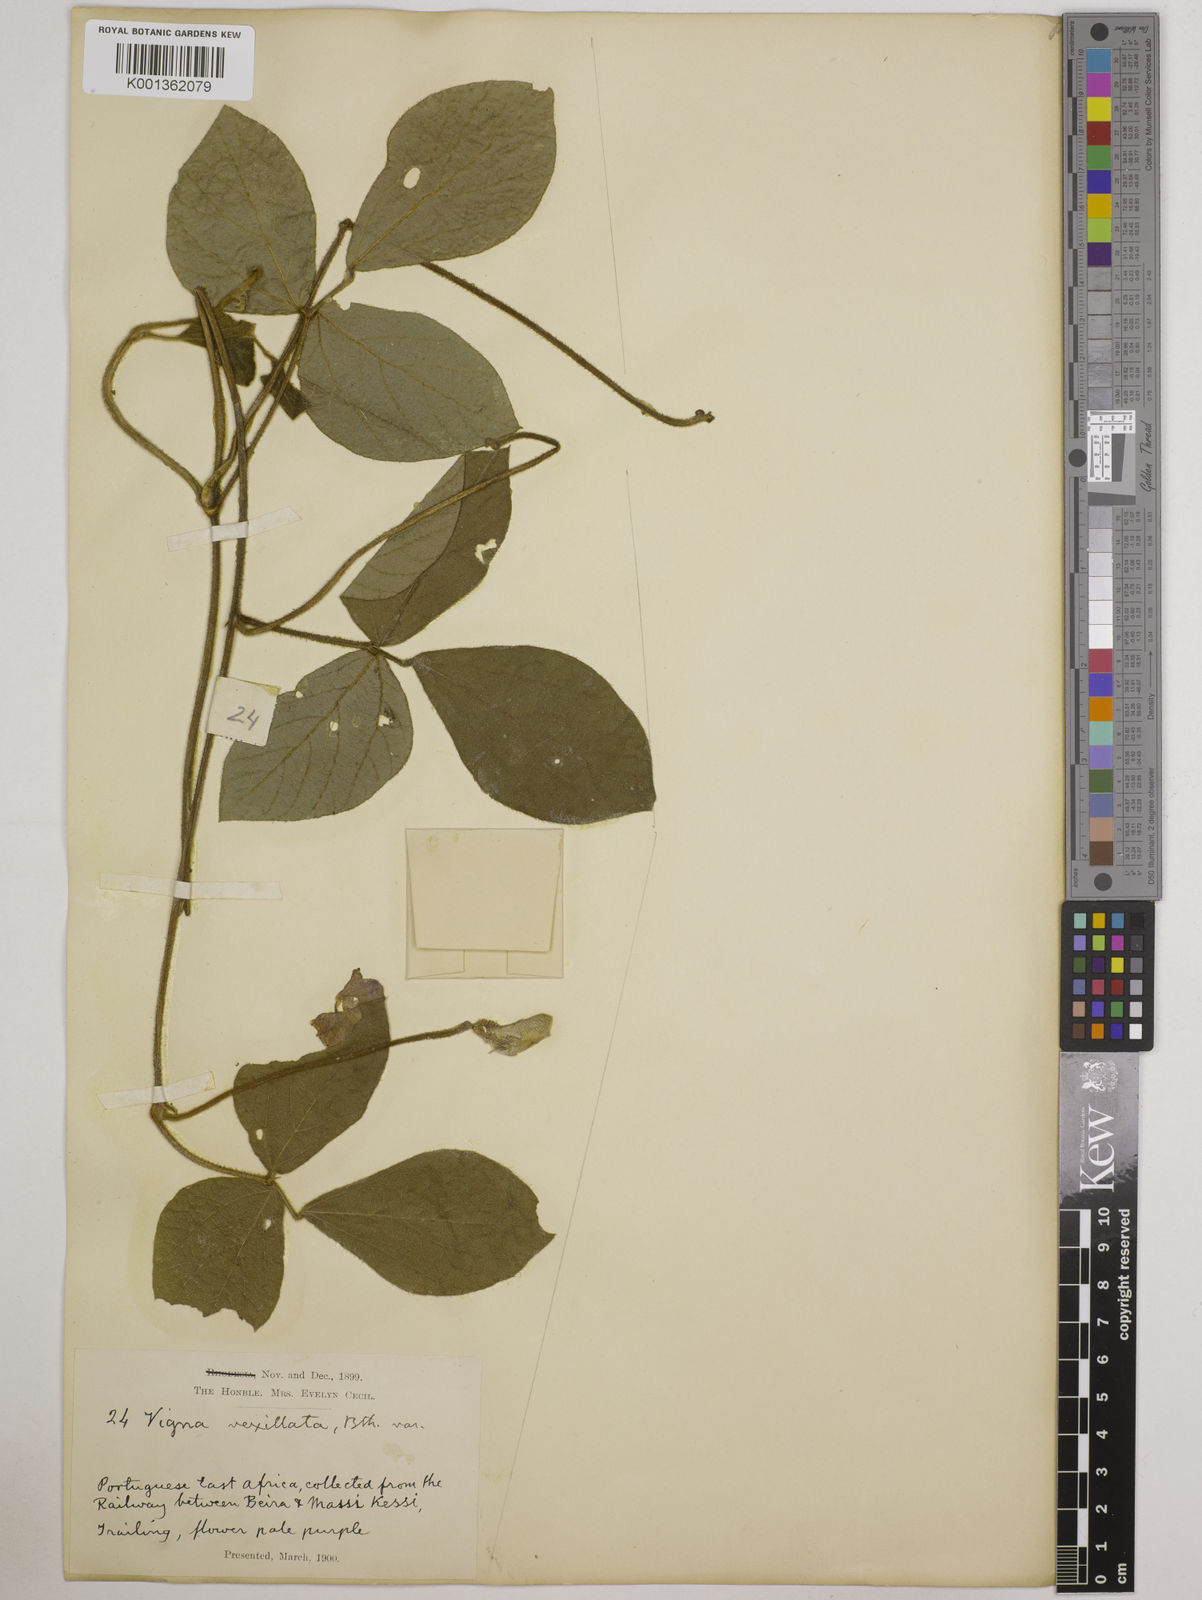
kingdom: Plantae
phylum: Tracheophyta
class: Magnoliopsida
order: Fabales
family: Fabaceae
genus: Vigna
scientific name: Vigna vexillata
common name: Zombi pea
